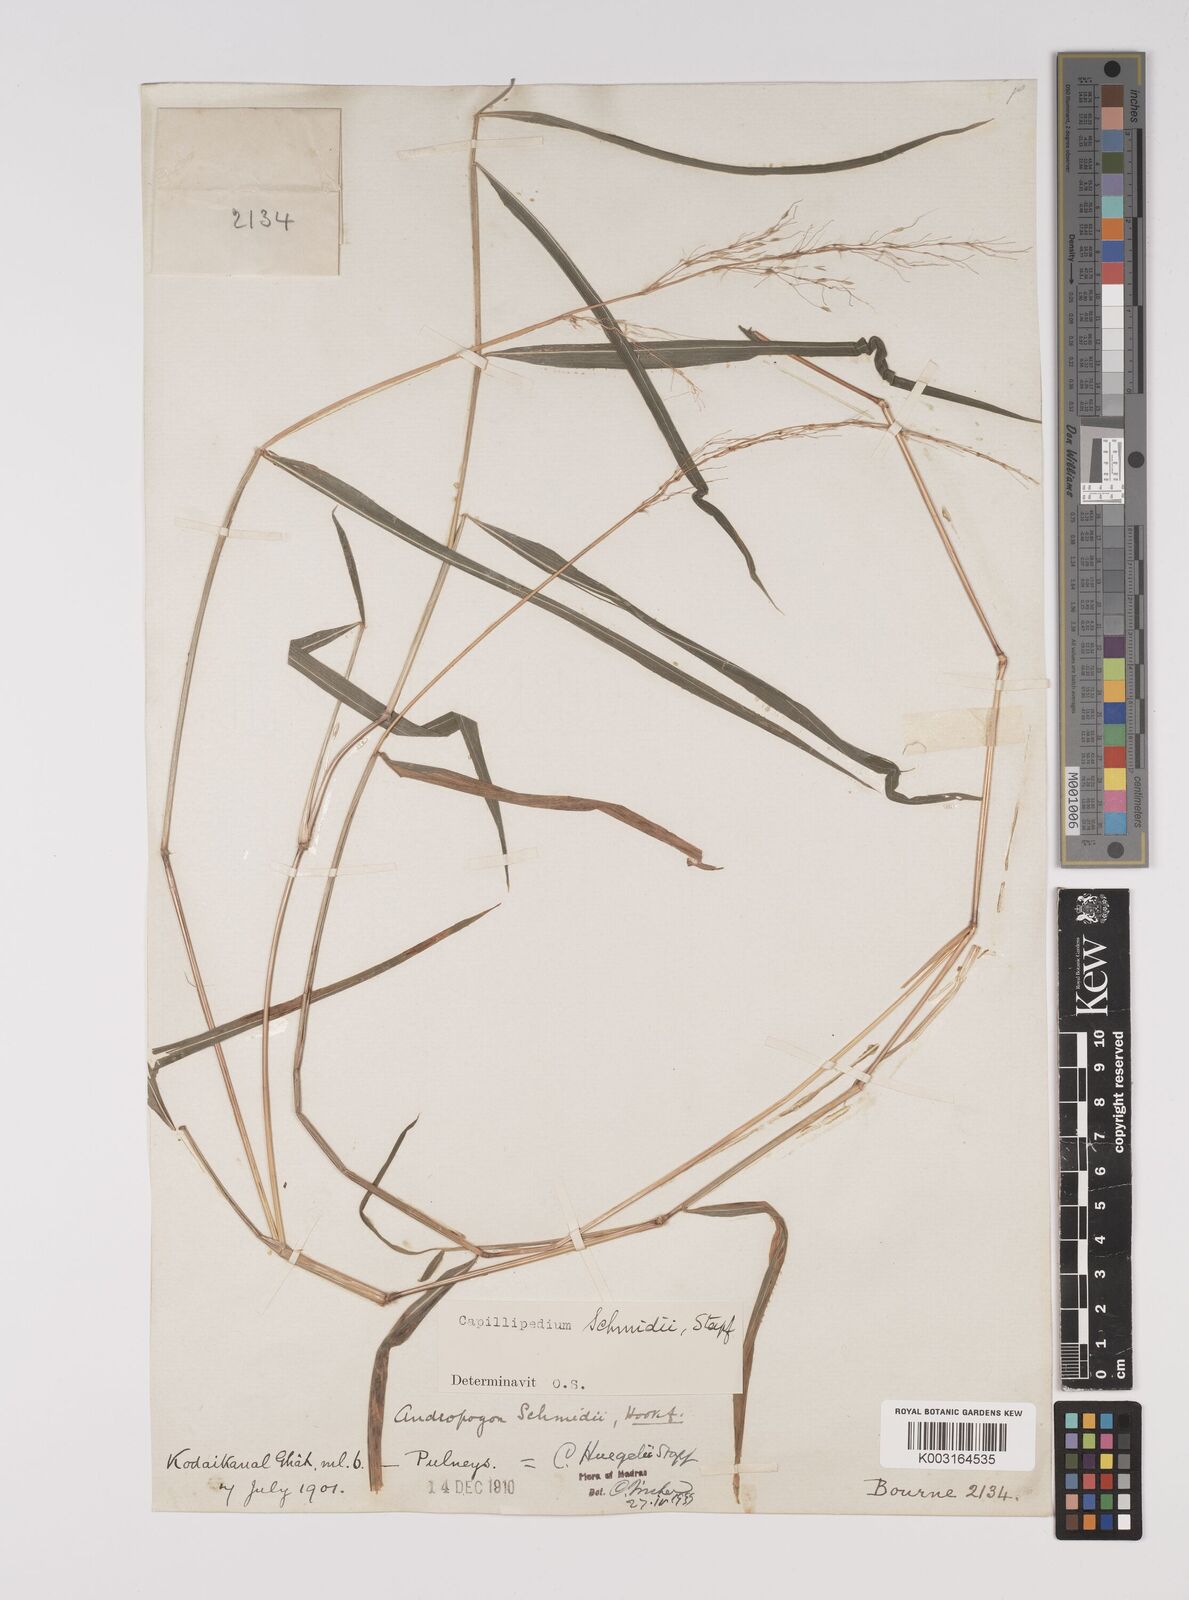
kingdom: Plantae
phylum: Tracheophyta
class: Liliopsida
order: Poales
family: Poaceae
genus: Capillipedium
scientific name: Capillipedium huegelii
